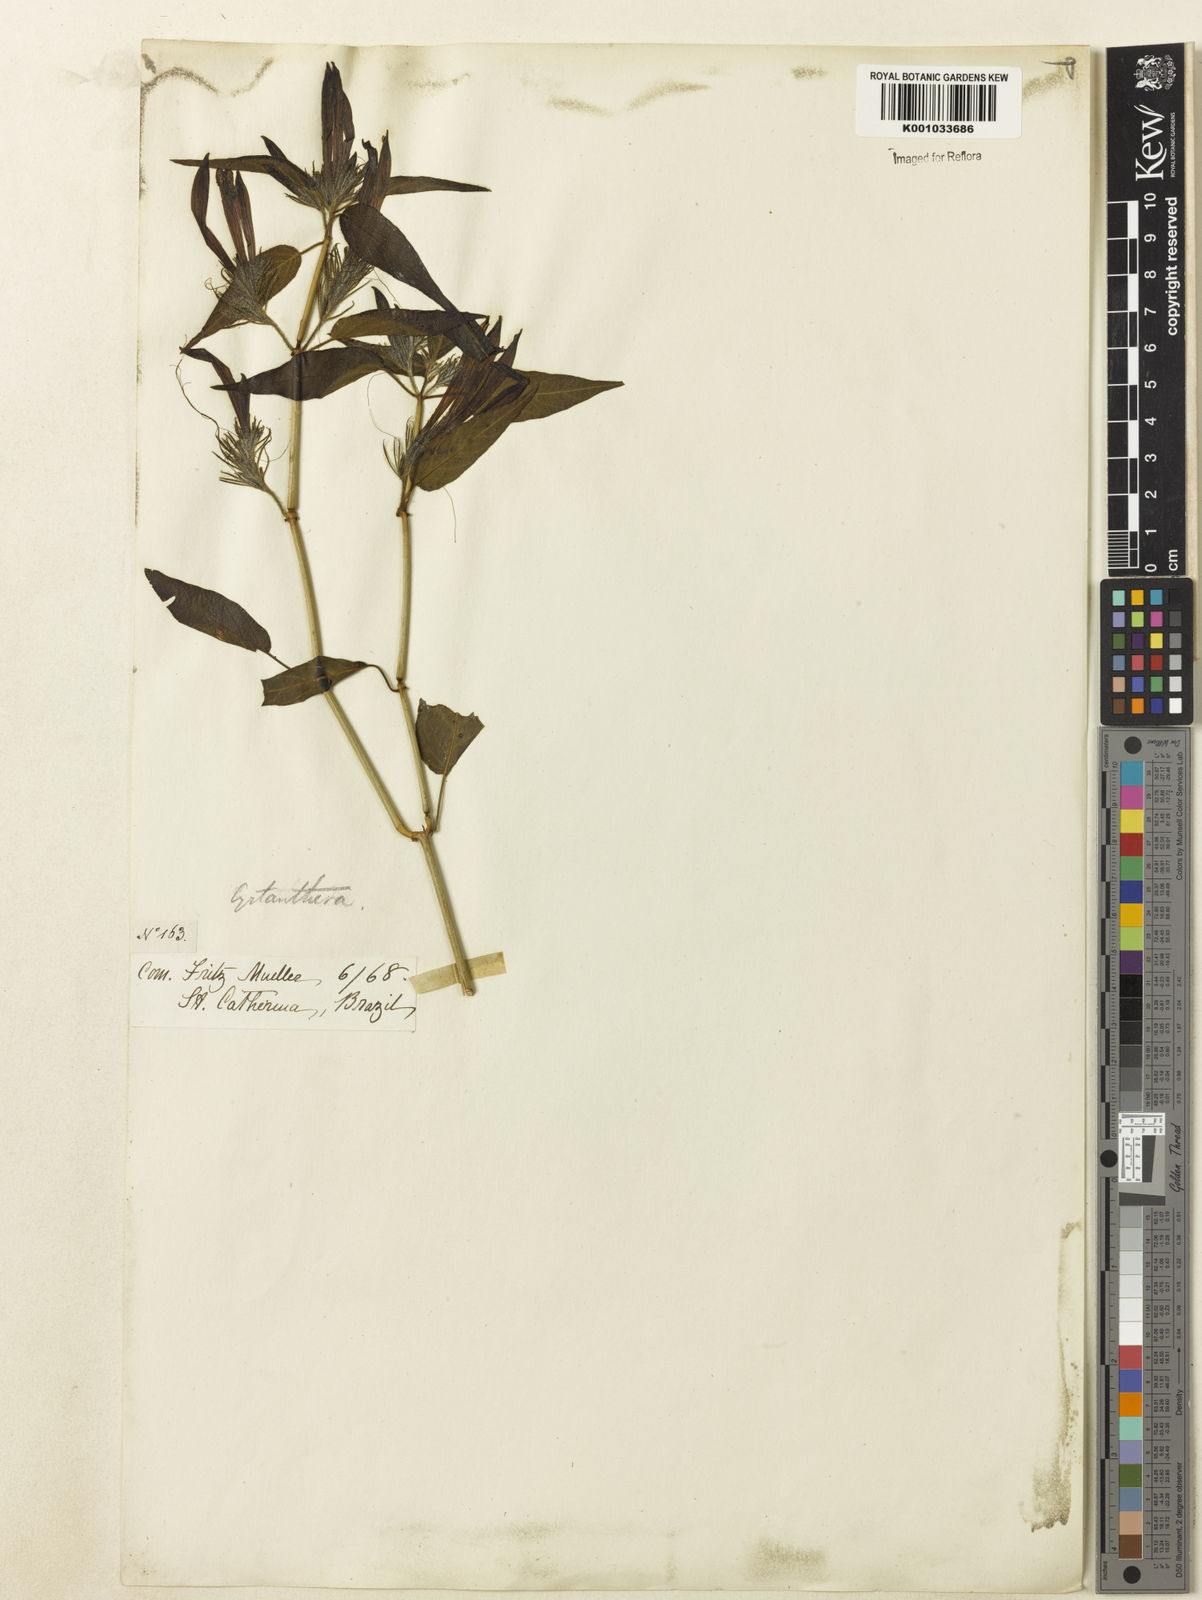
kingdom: Plantae
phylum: Tracheophyta
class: Magnoliopsida
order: Lamiales
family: Acanthaceae
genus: Justicia
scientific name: Justicia
